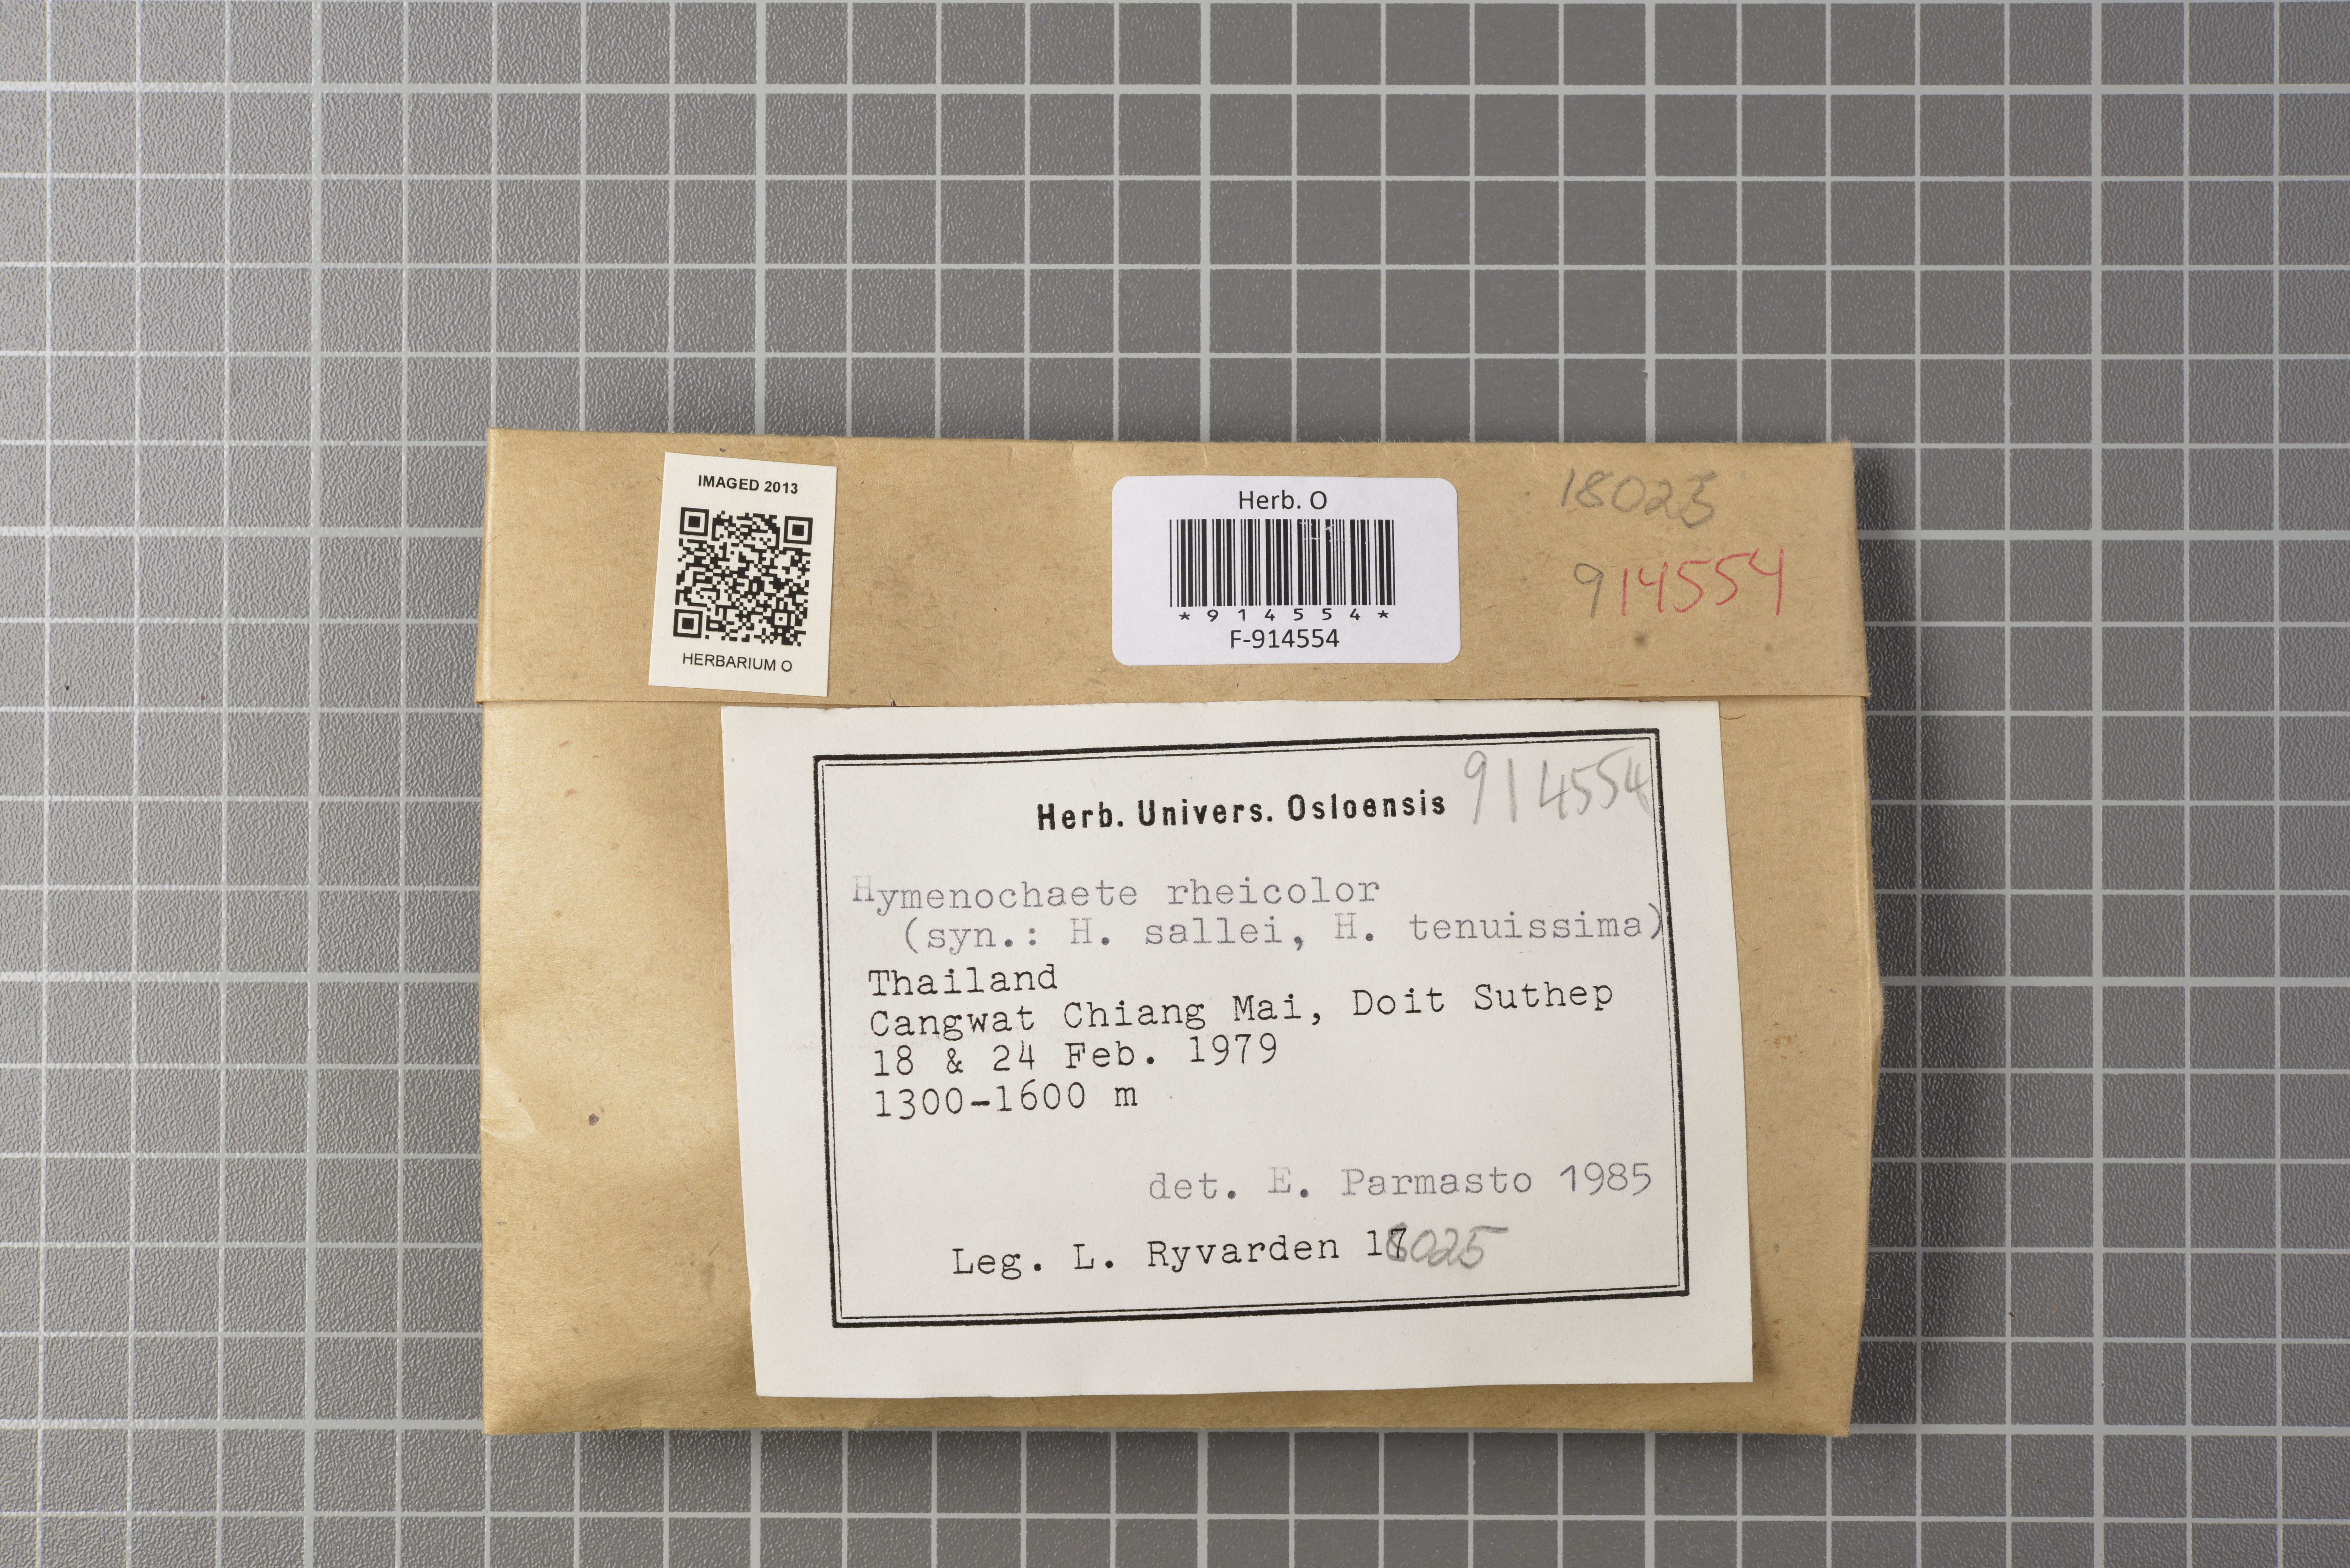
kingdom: Fungi
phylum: Basidiomycota
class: Agaricomycetes
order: Hymenochaetales
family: Hymenochaetaceae
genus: Hymenochaete
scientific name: Hymenochaete rheicolor
